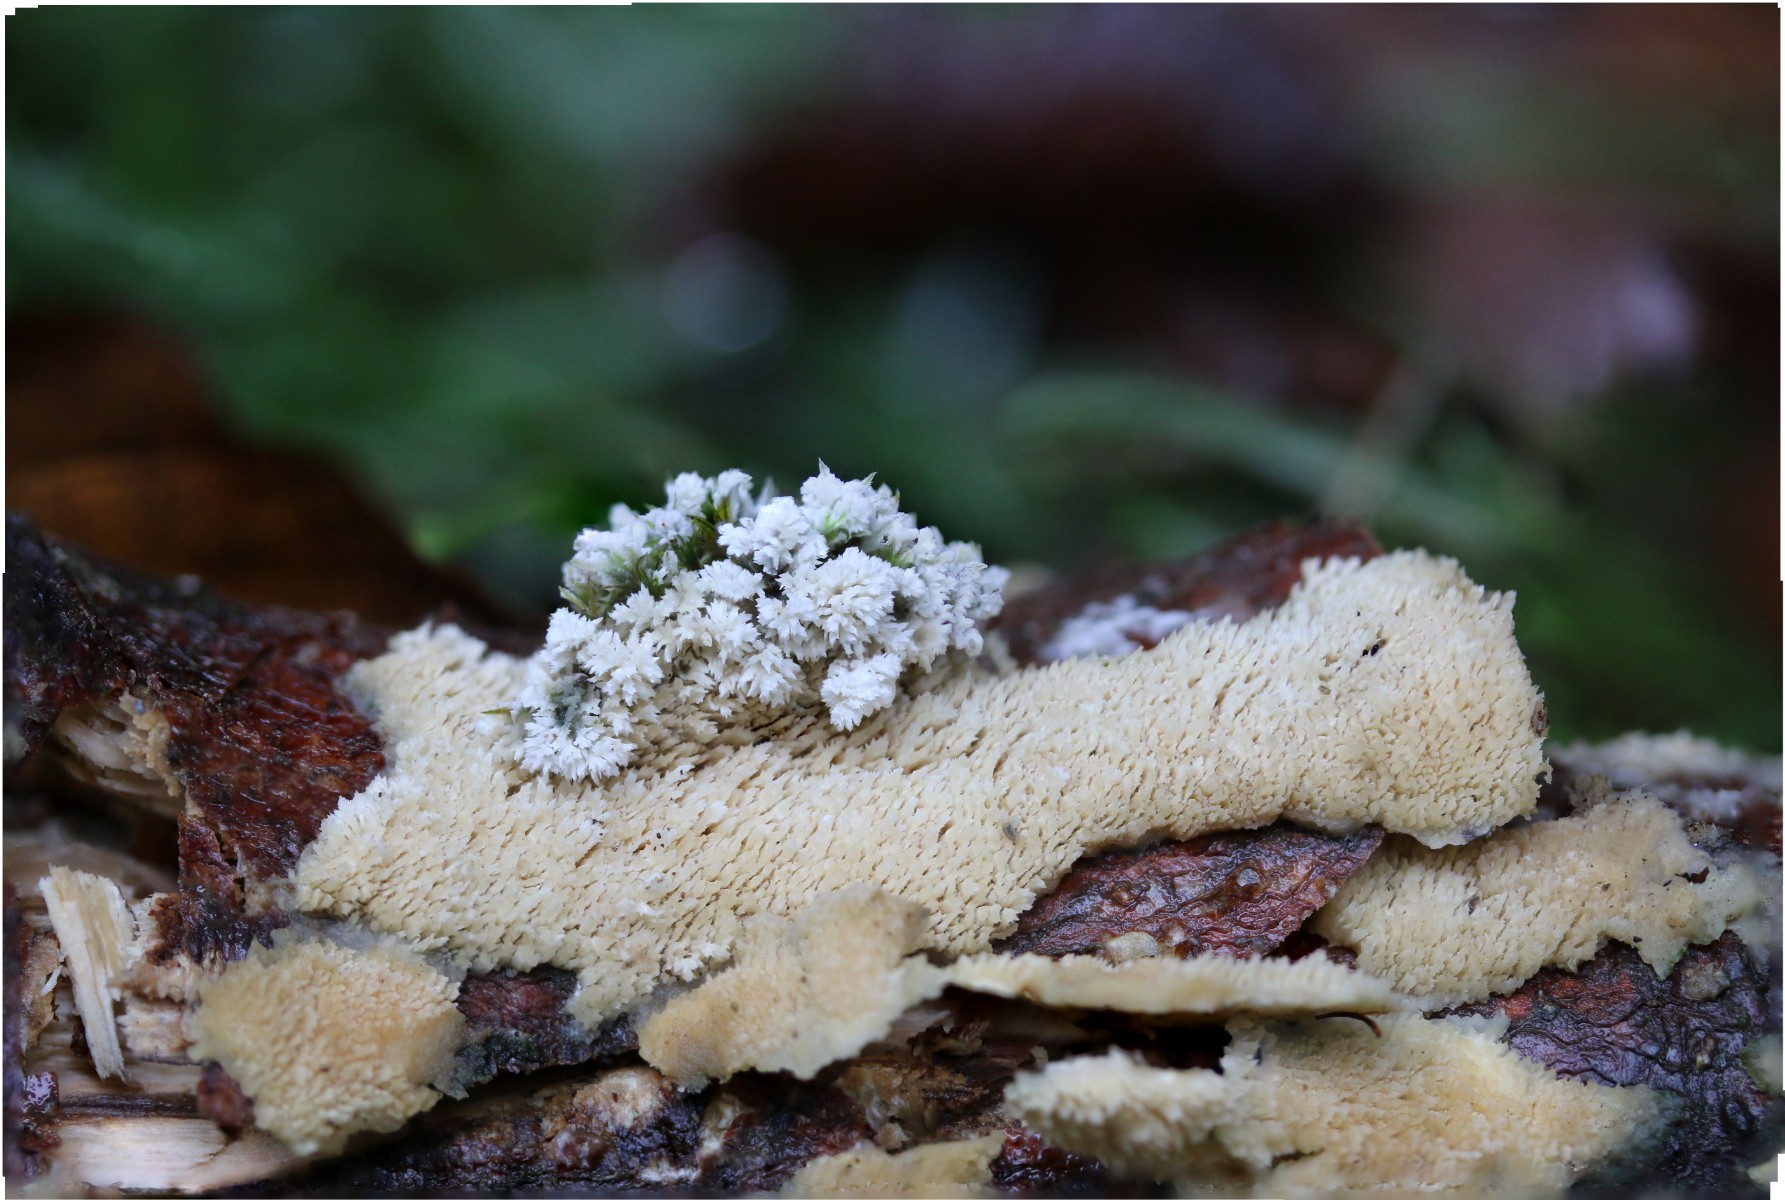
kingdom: Fungi
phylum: Basidiomycota
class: Agaricomycetes
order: Hymenochaetales
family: Hyphodontiaceae
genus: Hyphodontia
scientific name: Hyphodontia barba-jovis
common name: skægget tandsvamp
